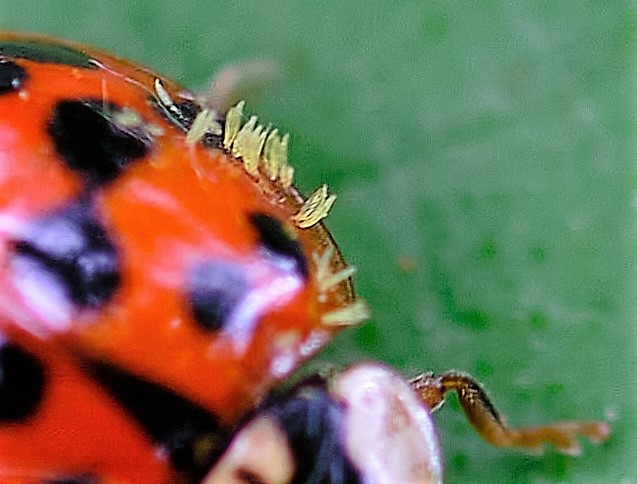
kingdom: Fungi
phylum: Ascomycota
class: Laboulbeniomycetes
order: Laboulbeniales
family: Laboulbeniaceae
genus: Hesperomyces
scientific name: Hesperomyces virescens
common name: Green beetle hanger
